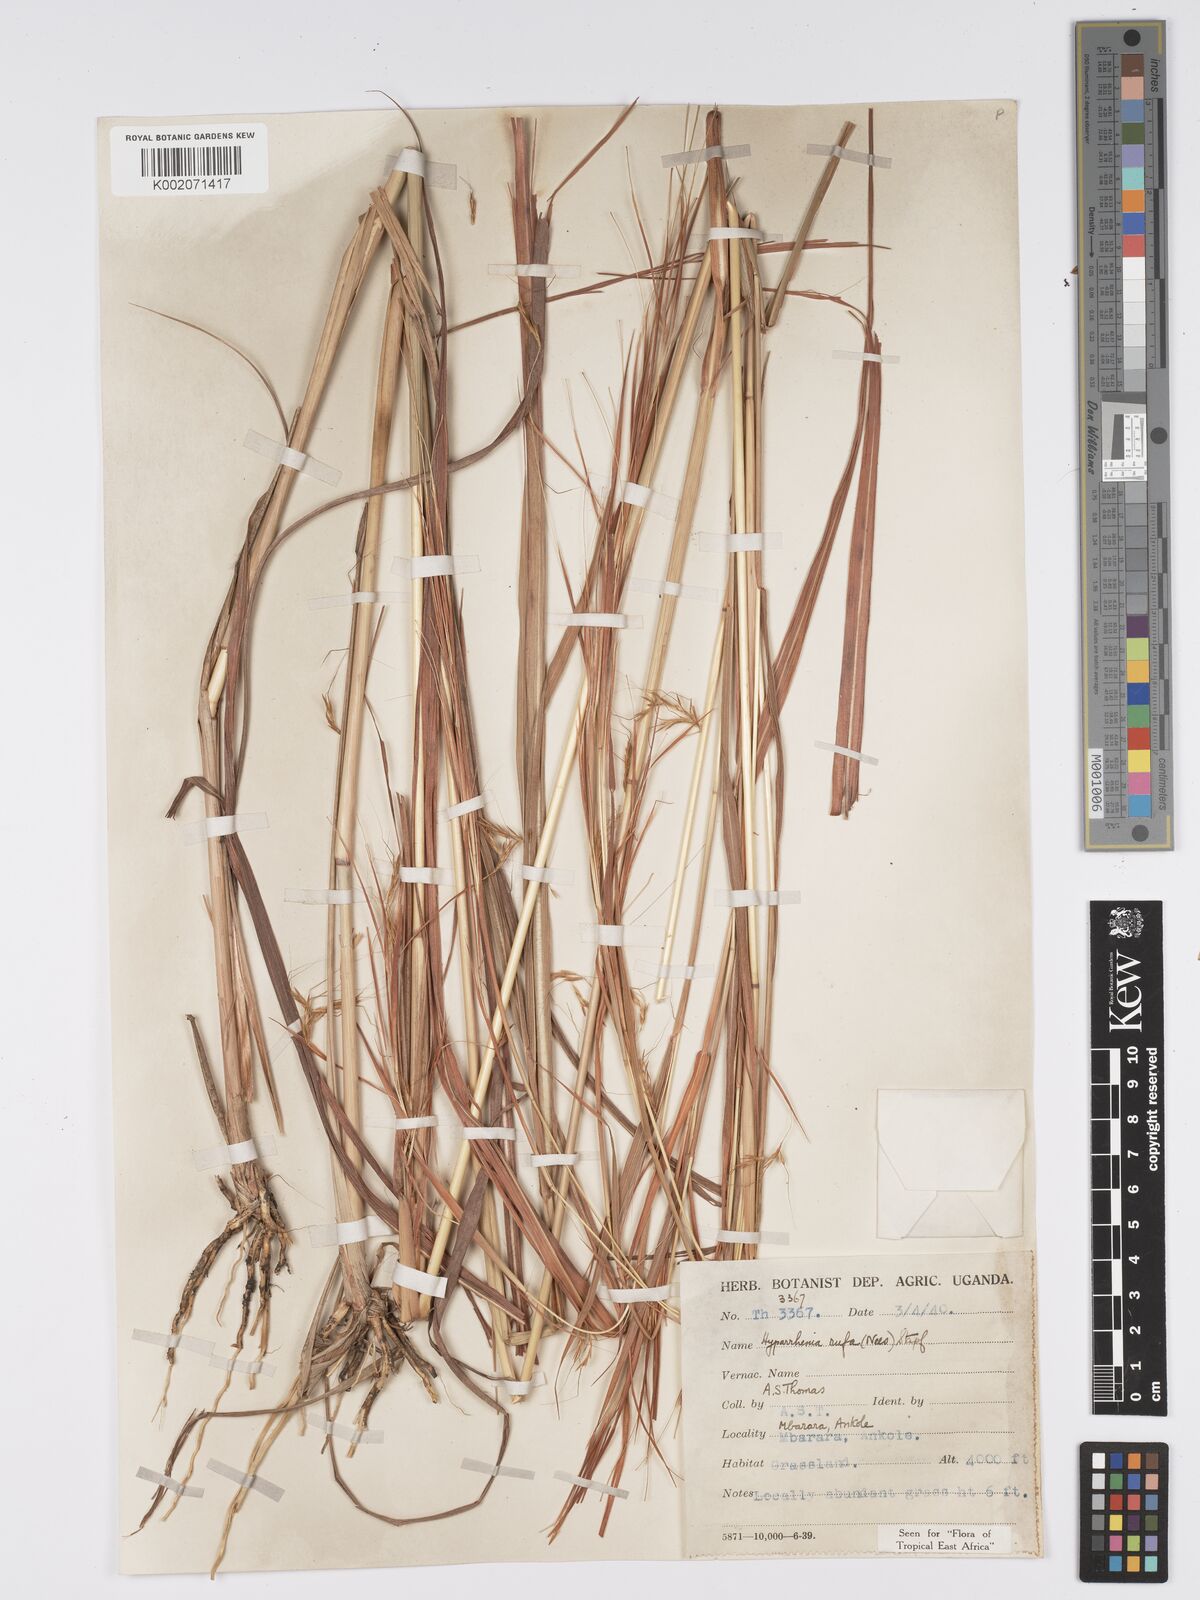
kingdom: Plantae
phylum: Tracheophyta
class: Liliopsida
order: Poales
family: Poaceae
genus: Hyparrhenia
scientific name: Hyparrhenia rufa
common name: Jaraguagrass
